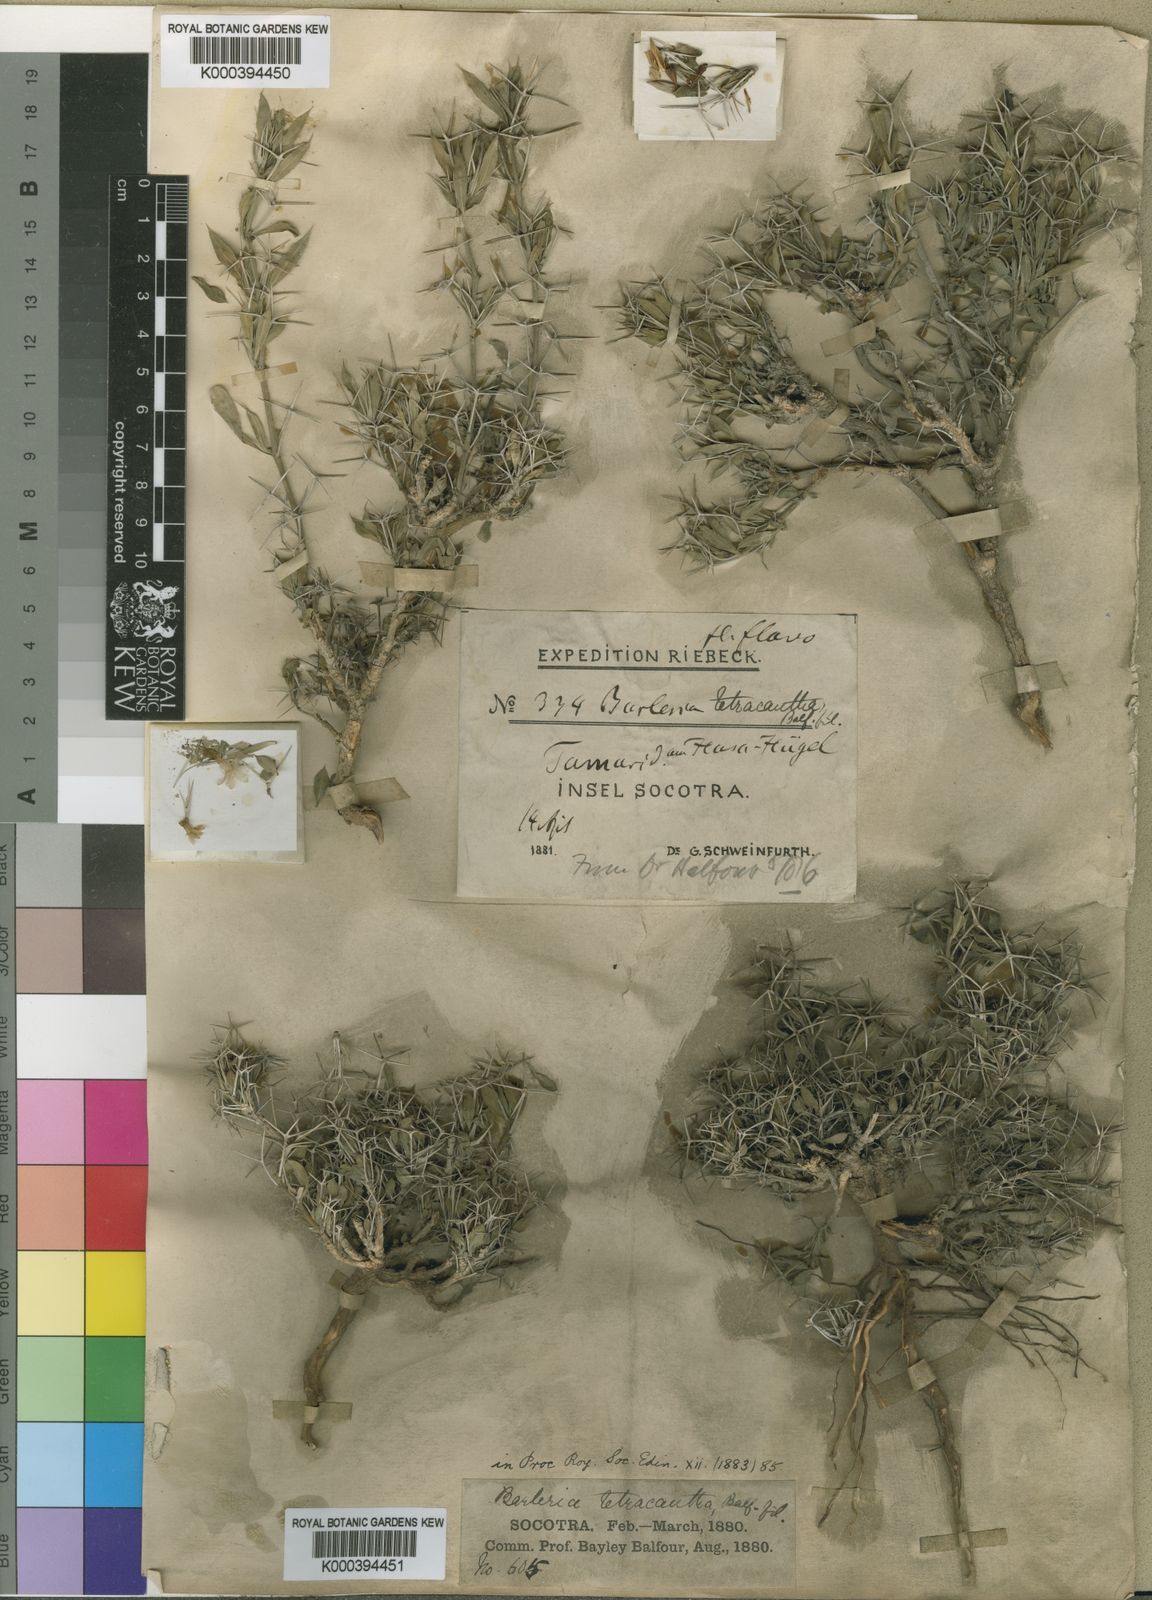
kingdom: Plantae
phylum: Tracheophyta
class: Magnoliopsida
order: Lamiales
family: Acanthaceae
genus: Barleria
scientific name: Barleria tetracantha
